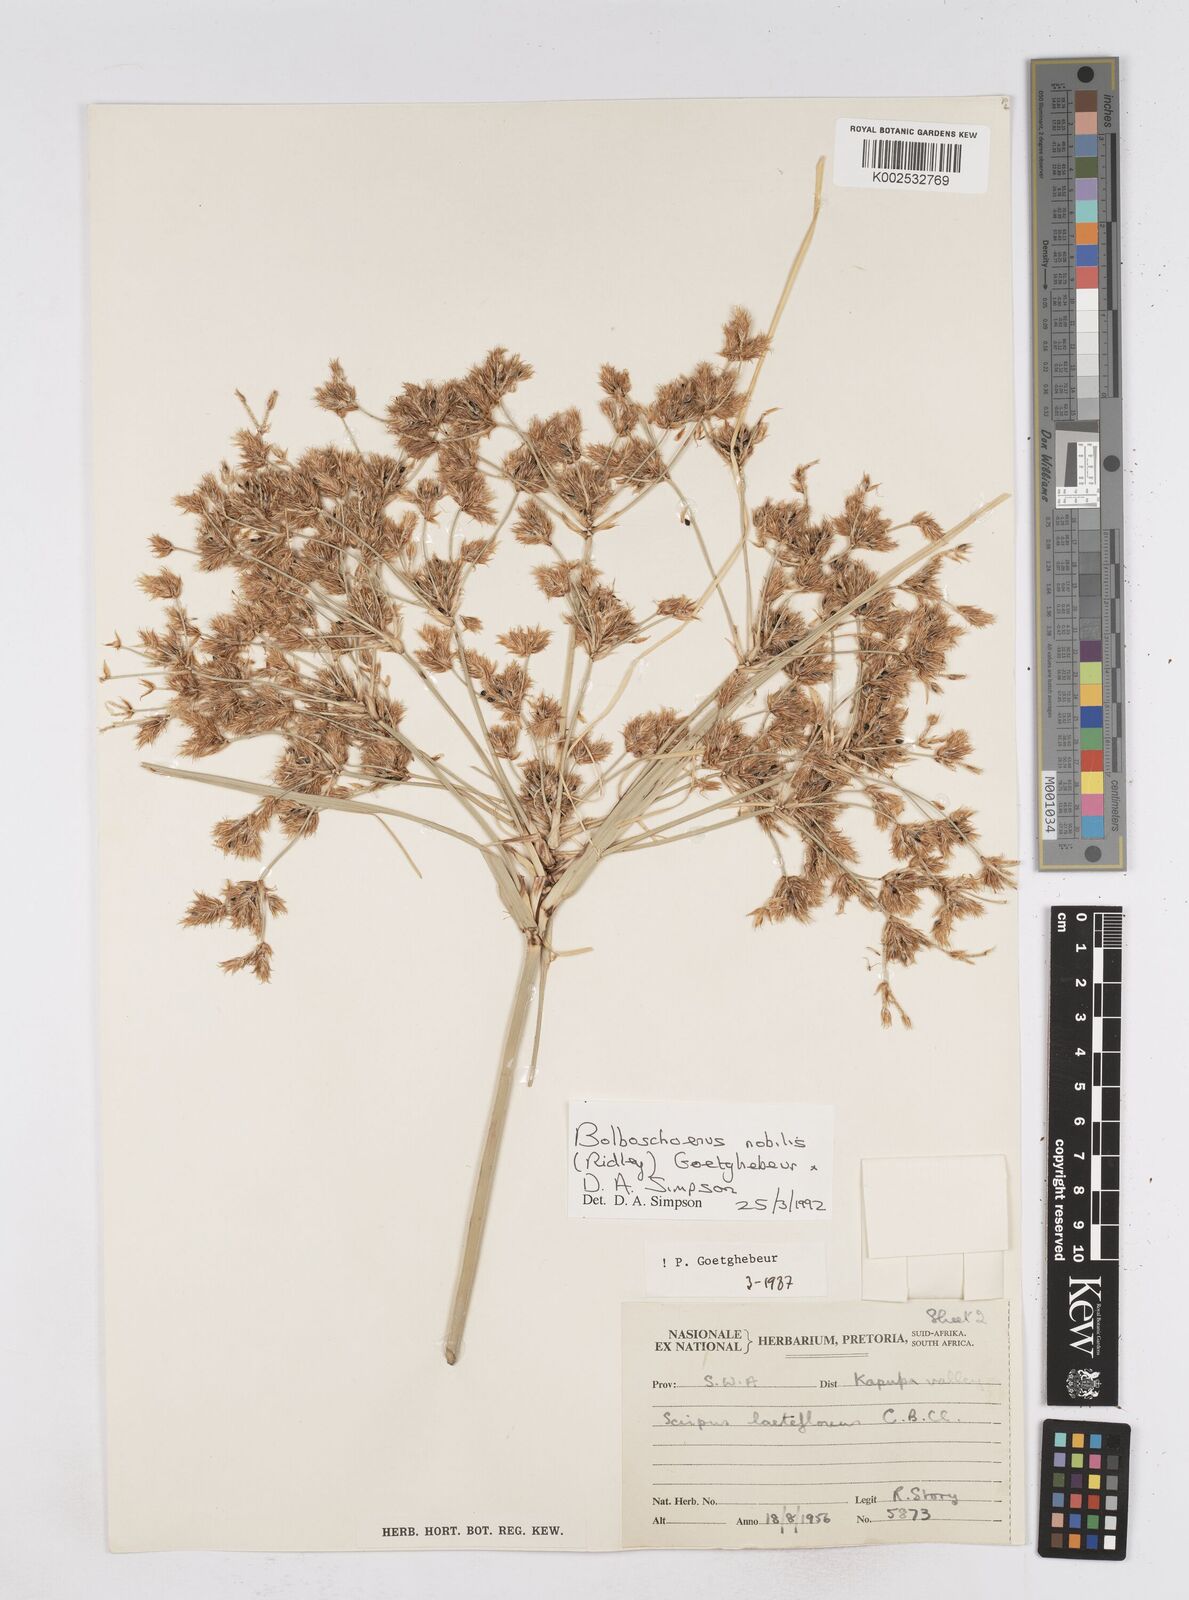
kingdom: Plantae
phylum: Tracheophyta
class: Liliopsida
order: Poales
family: Cyperaceae
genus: Bolboschoenus
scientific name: Bolboschoenus nobilis
